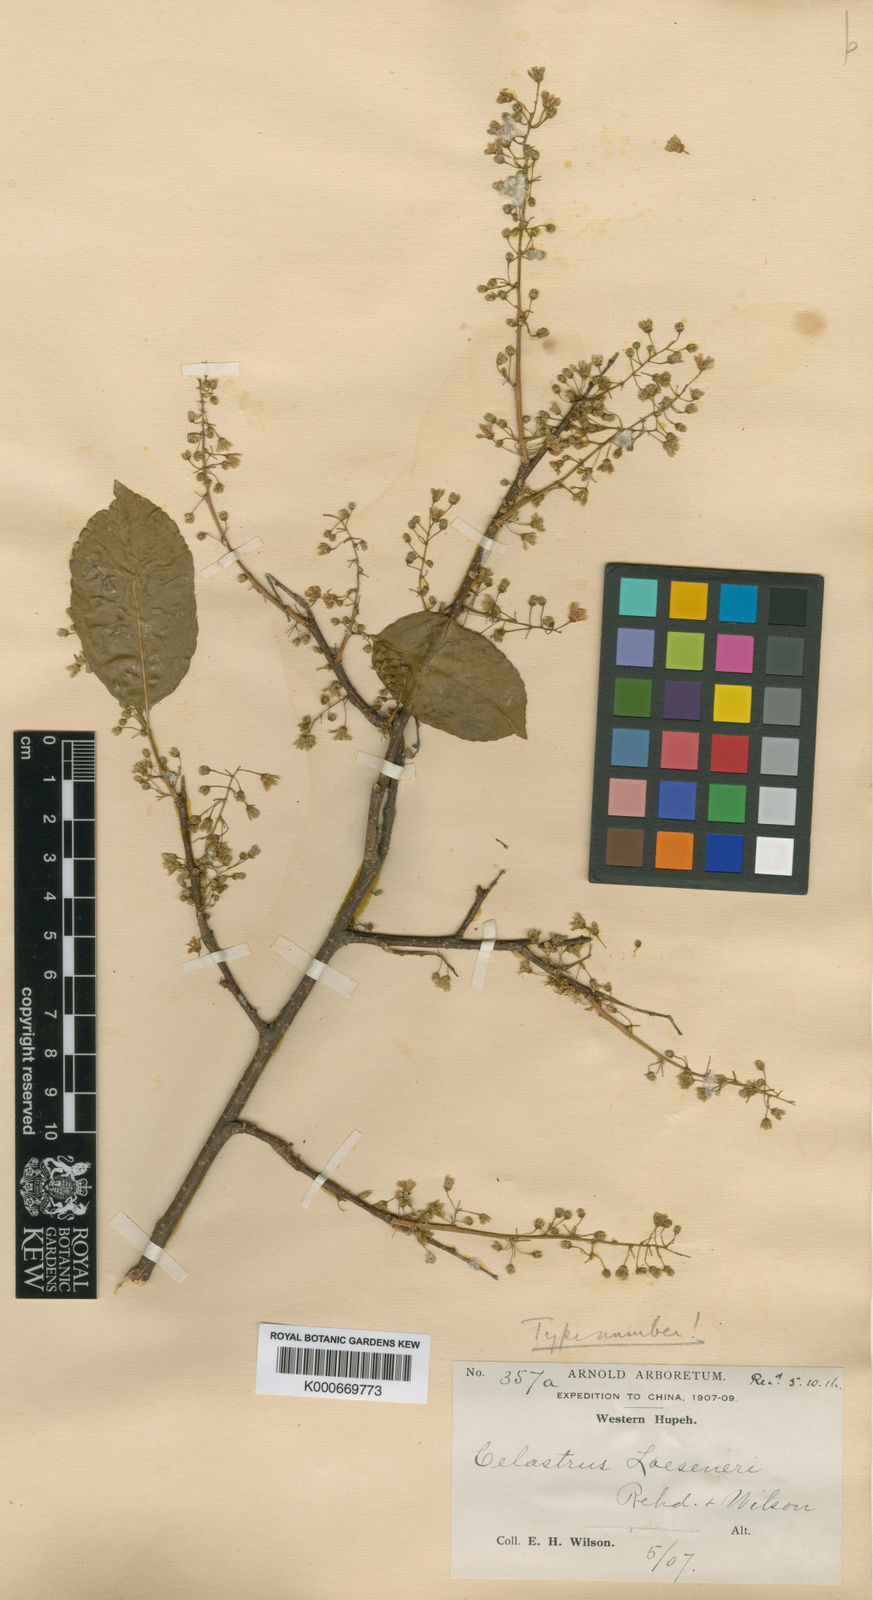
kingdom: Plantae
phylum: Tracheophyta
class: Magnoliopsida
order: Celastrales
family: Celastraceae
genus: Celastrus
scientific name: Celastrus rosthornianus
